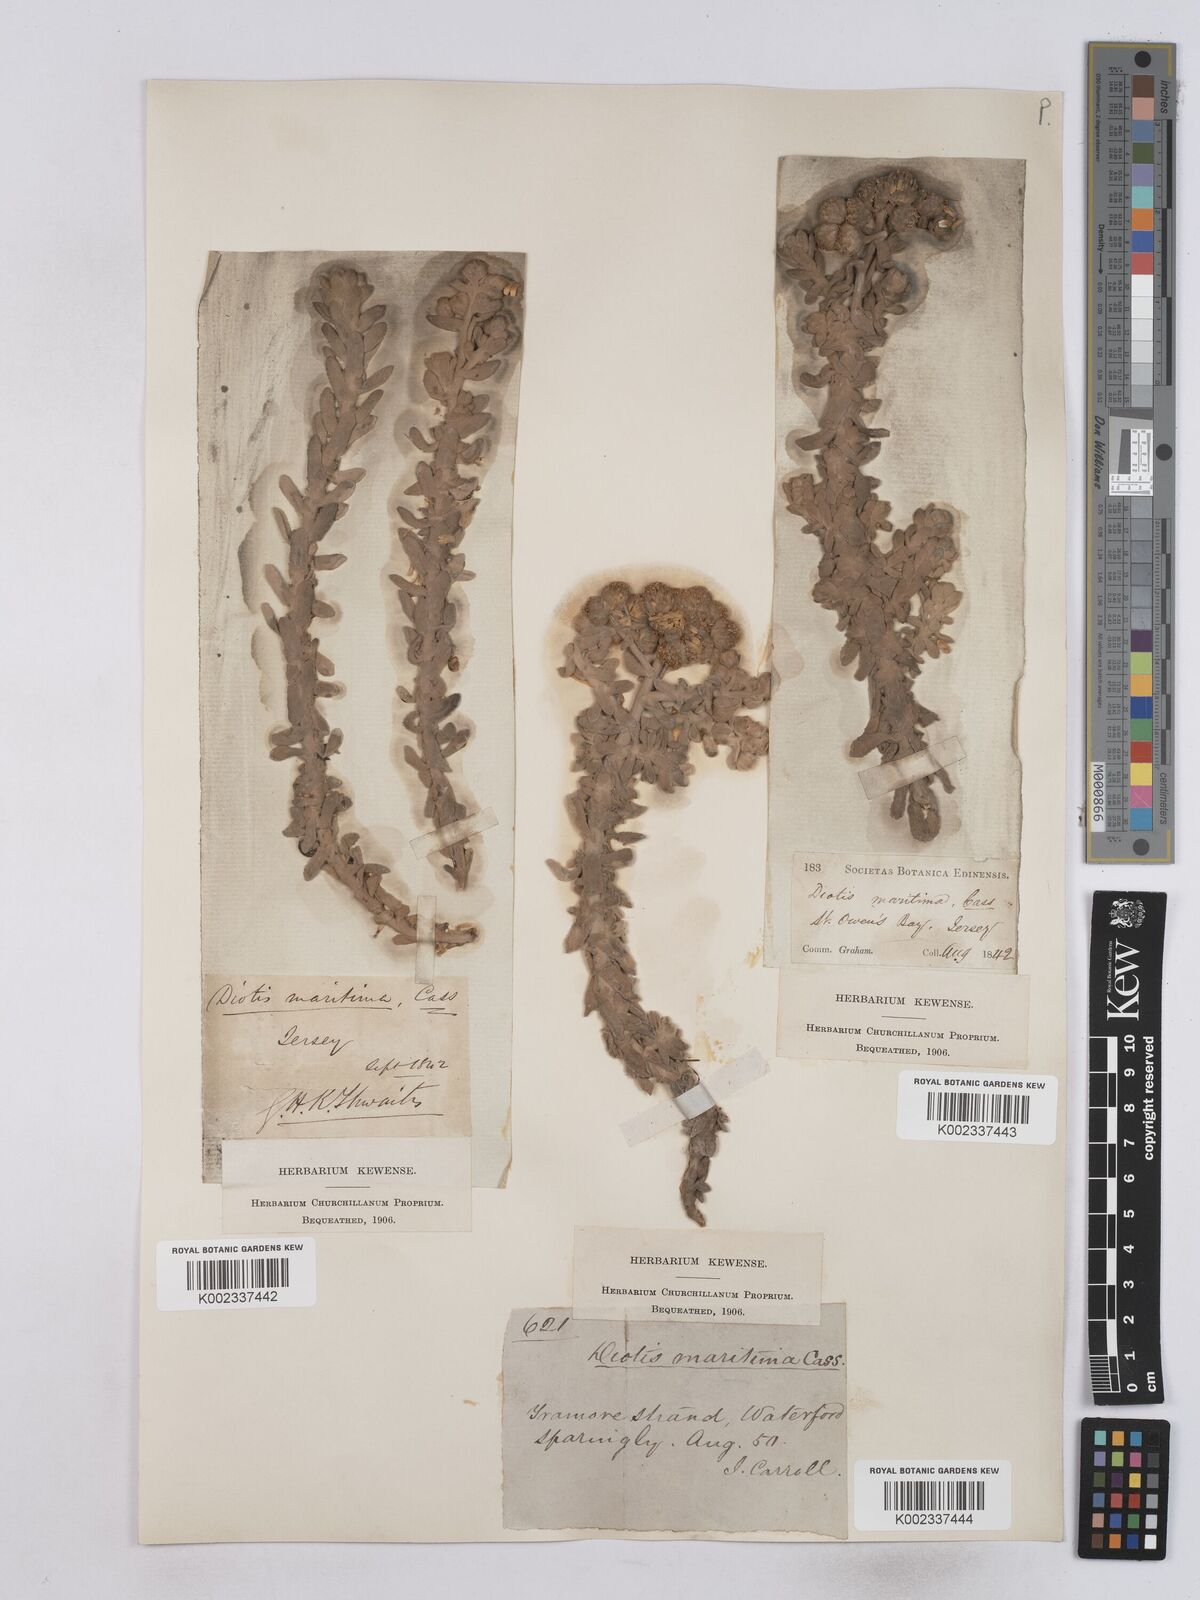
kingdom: Plantae
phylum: Tracheophyta
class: Magnoliopsida
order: Asterales
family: Asteraceae
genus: Achillea
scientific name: Achillea maritima
